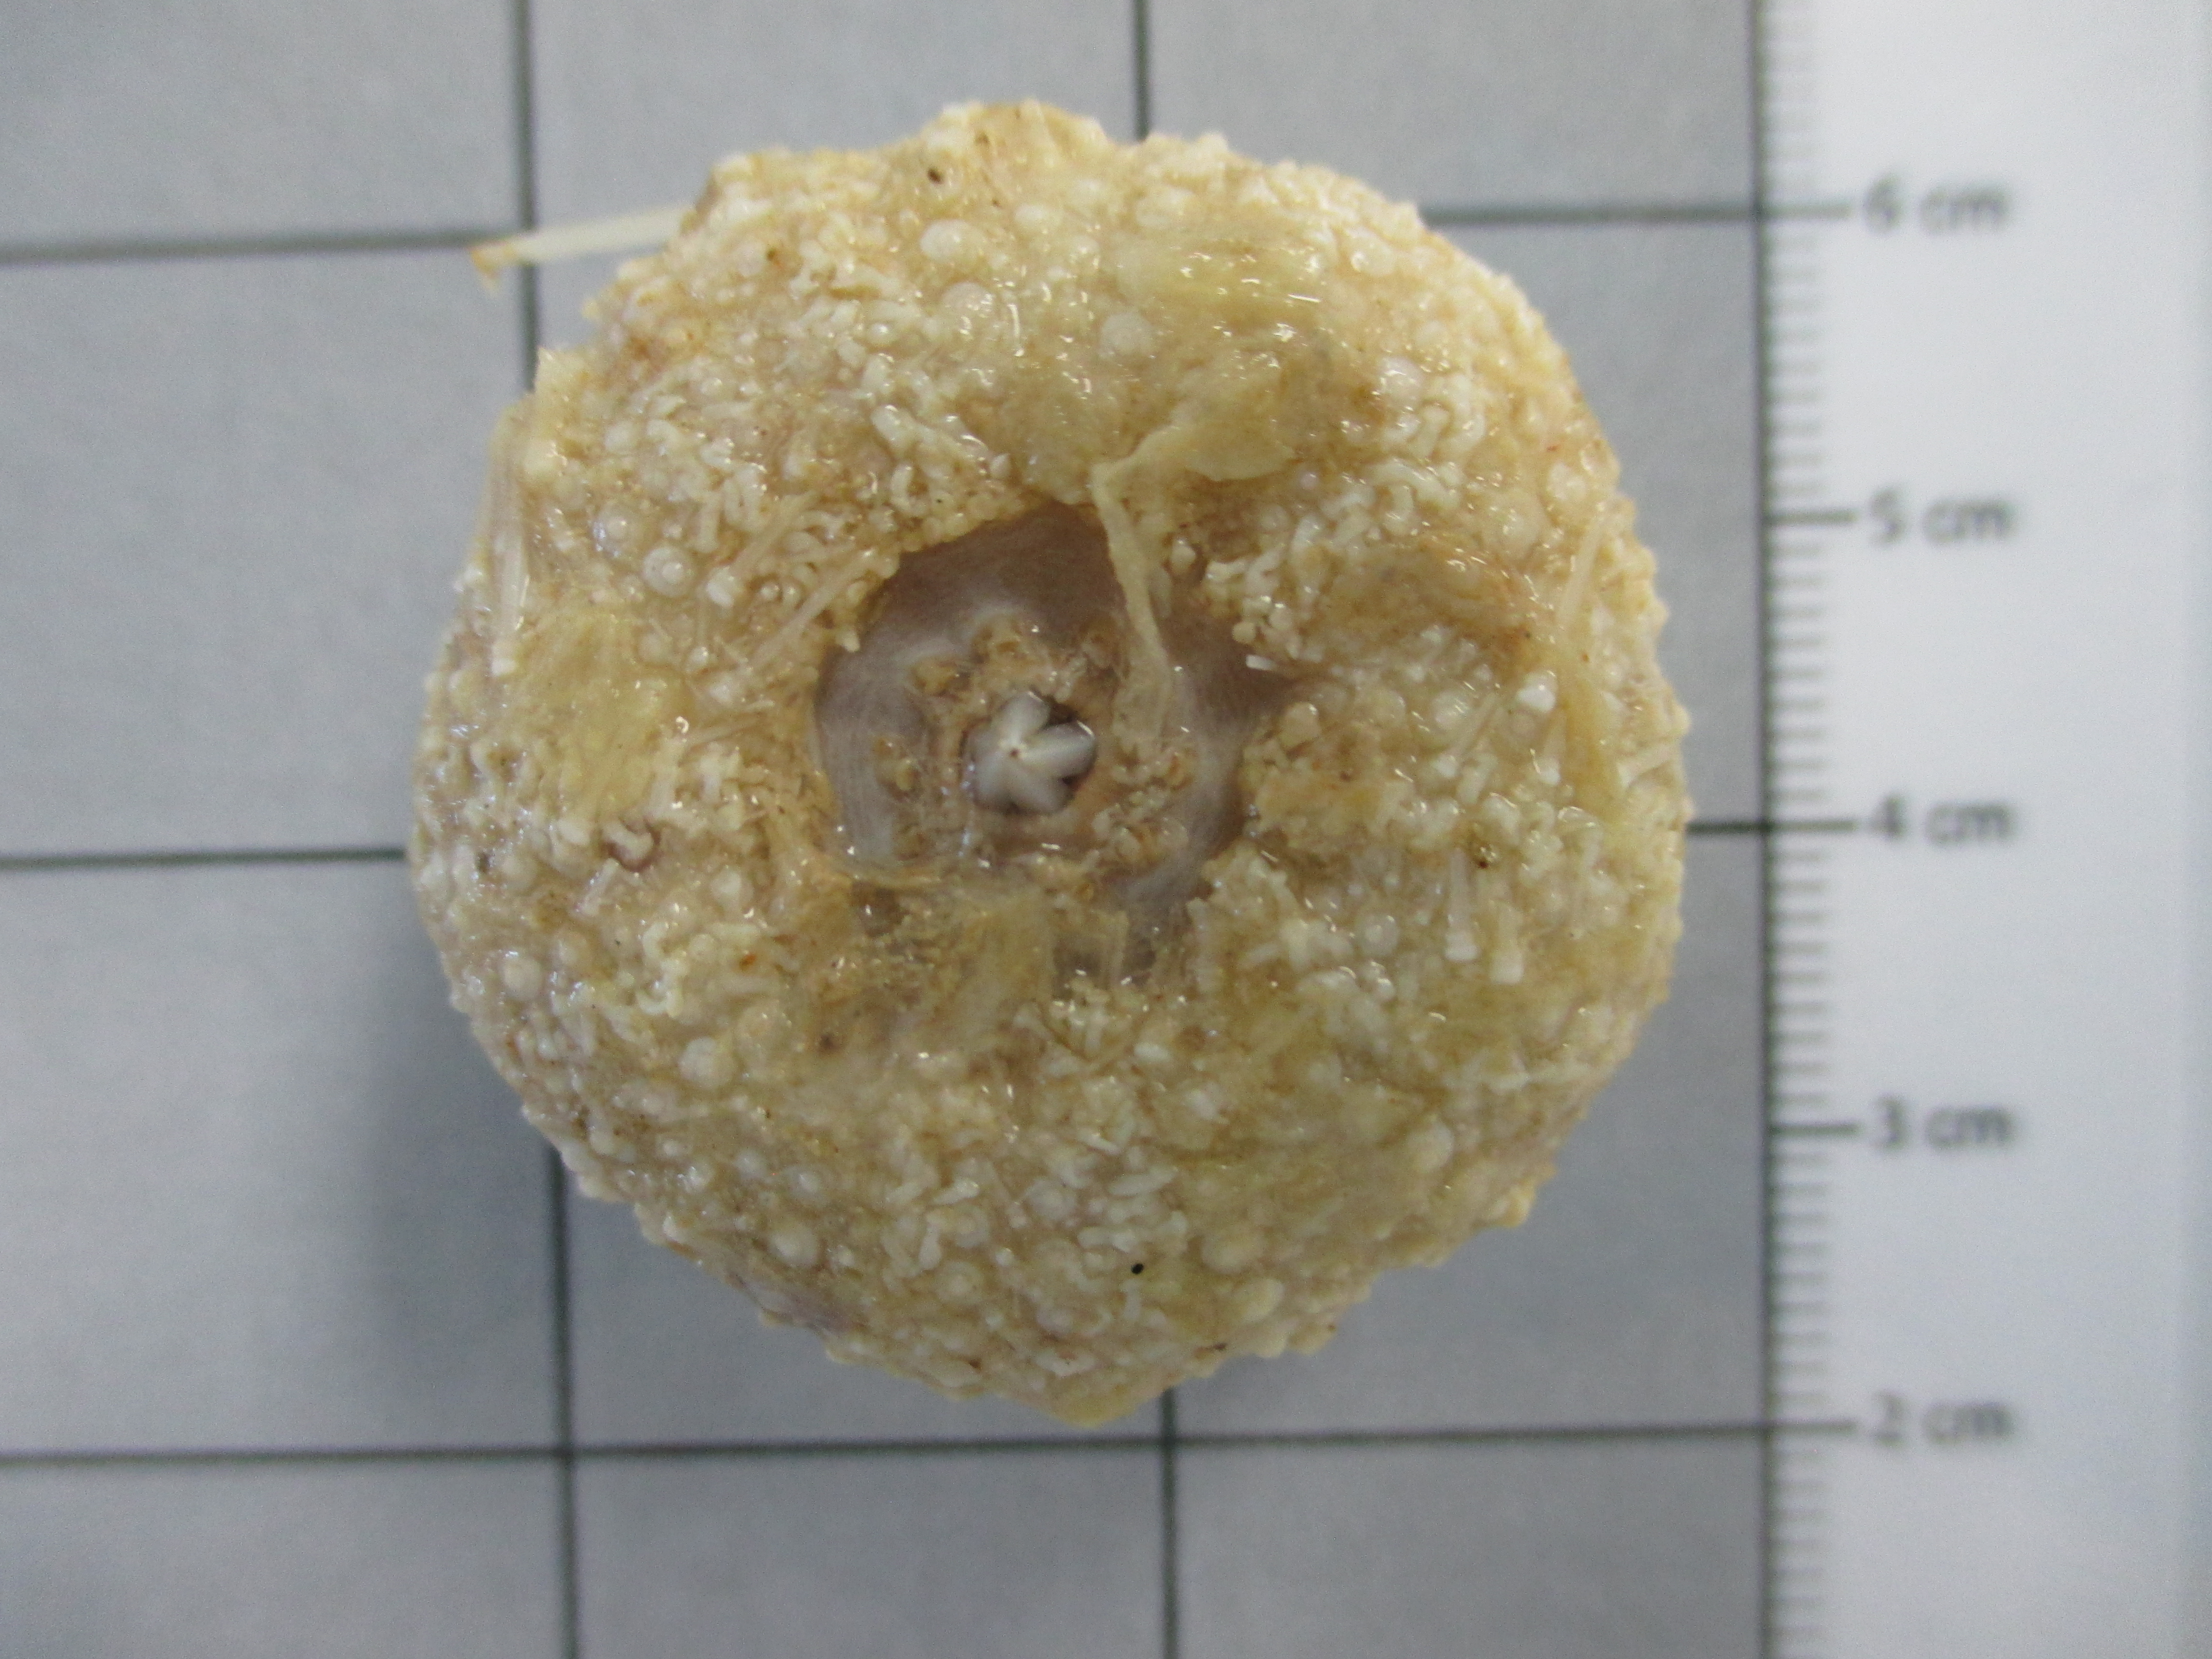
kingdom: Animalia
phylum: Echinodermata
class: Echinoidea
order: Camarodonta
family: Echinidae
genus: Echinus
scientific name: Echinus gilchristi
